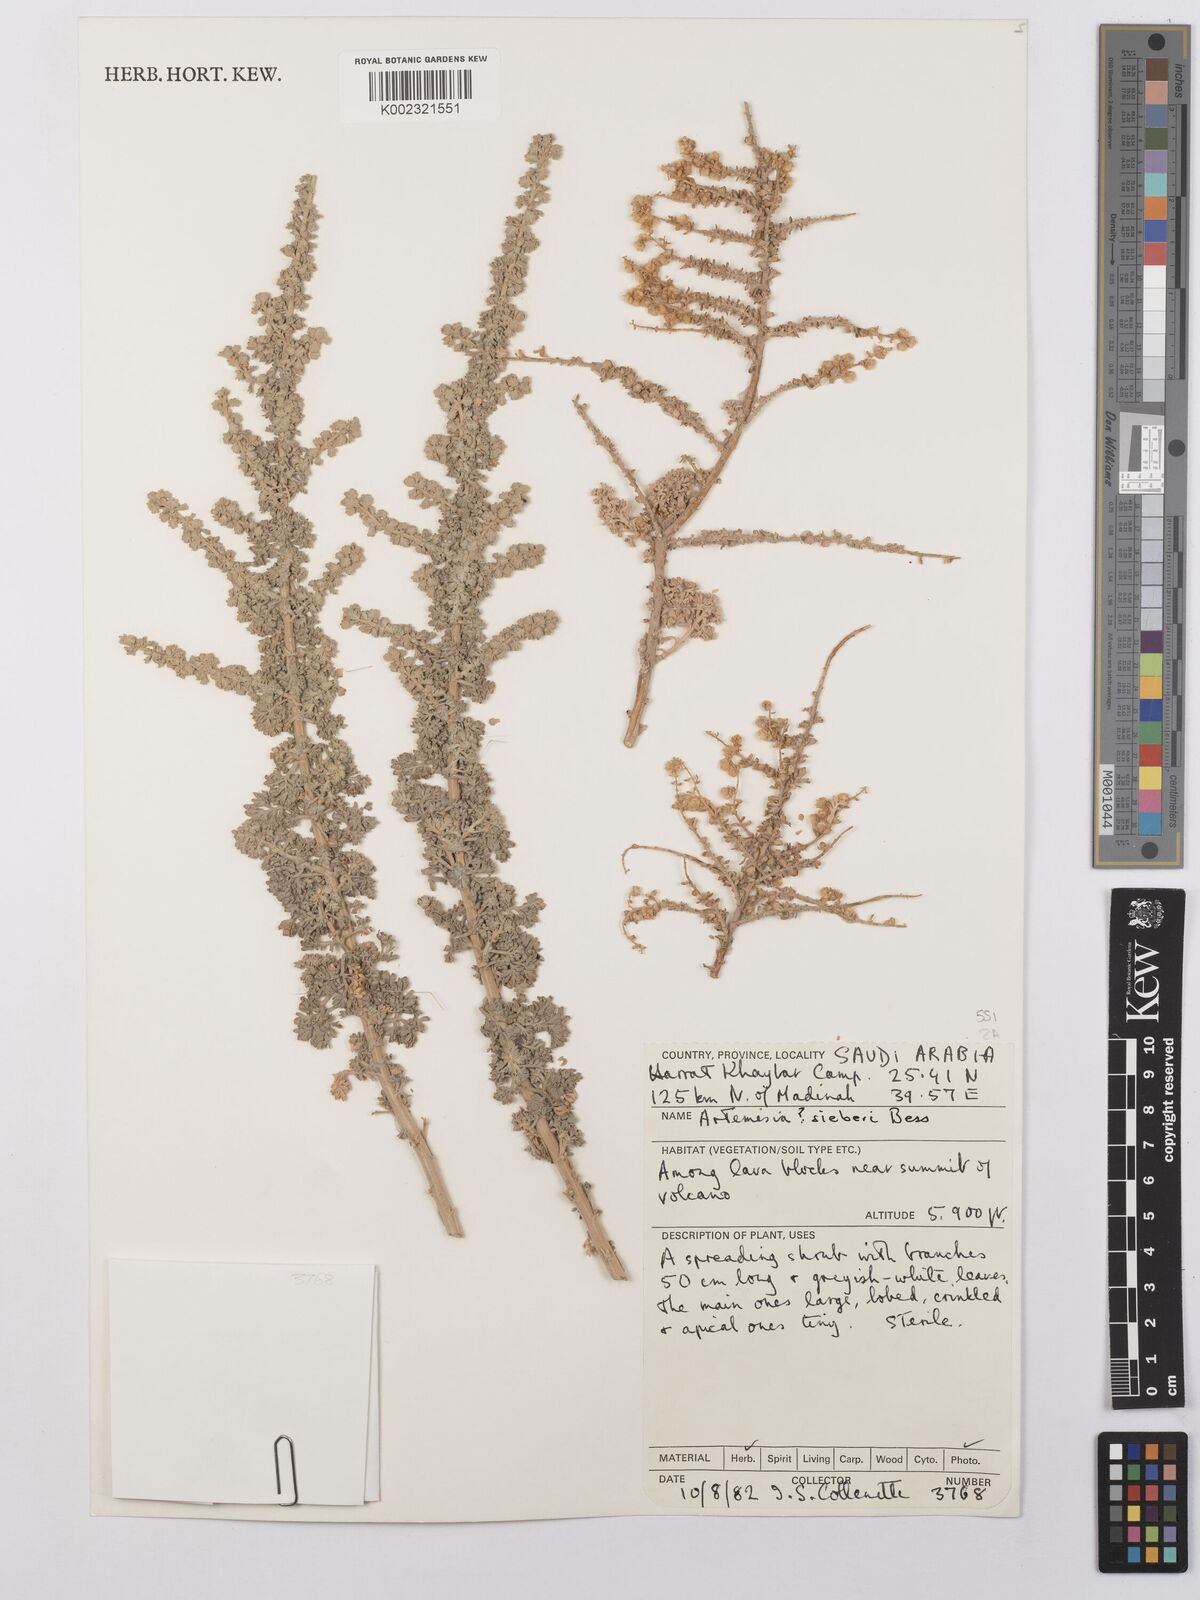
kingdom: Plantae
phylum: Tracheophyta
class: Magnoliopsida
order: Asterales
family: Asteraceae
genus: Artemisia
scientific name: Artemisia sieberi
